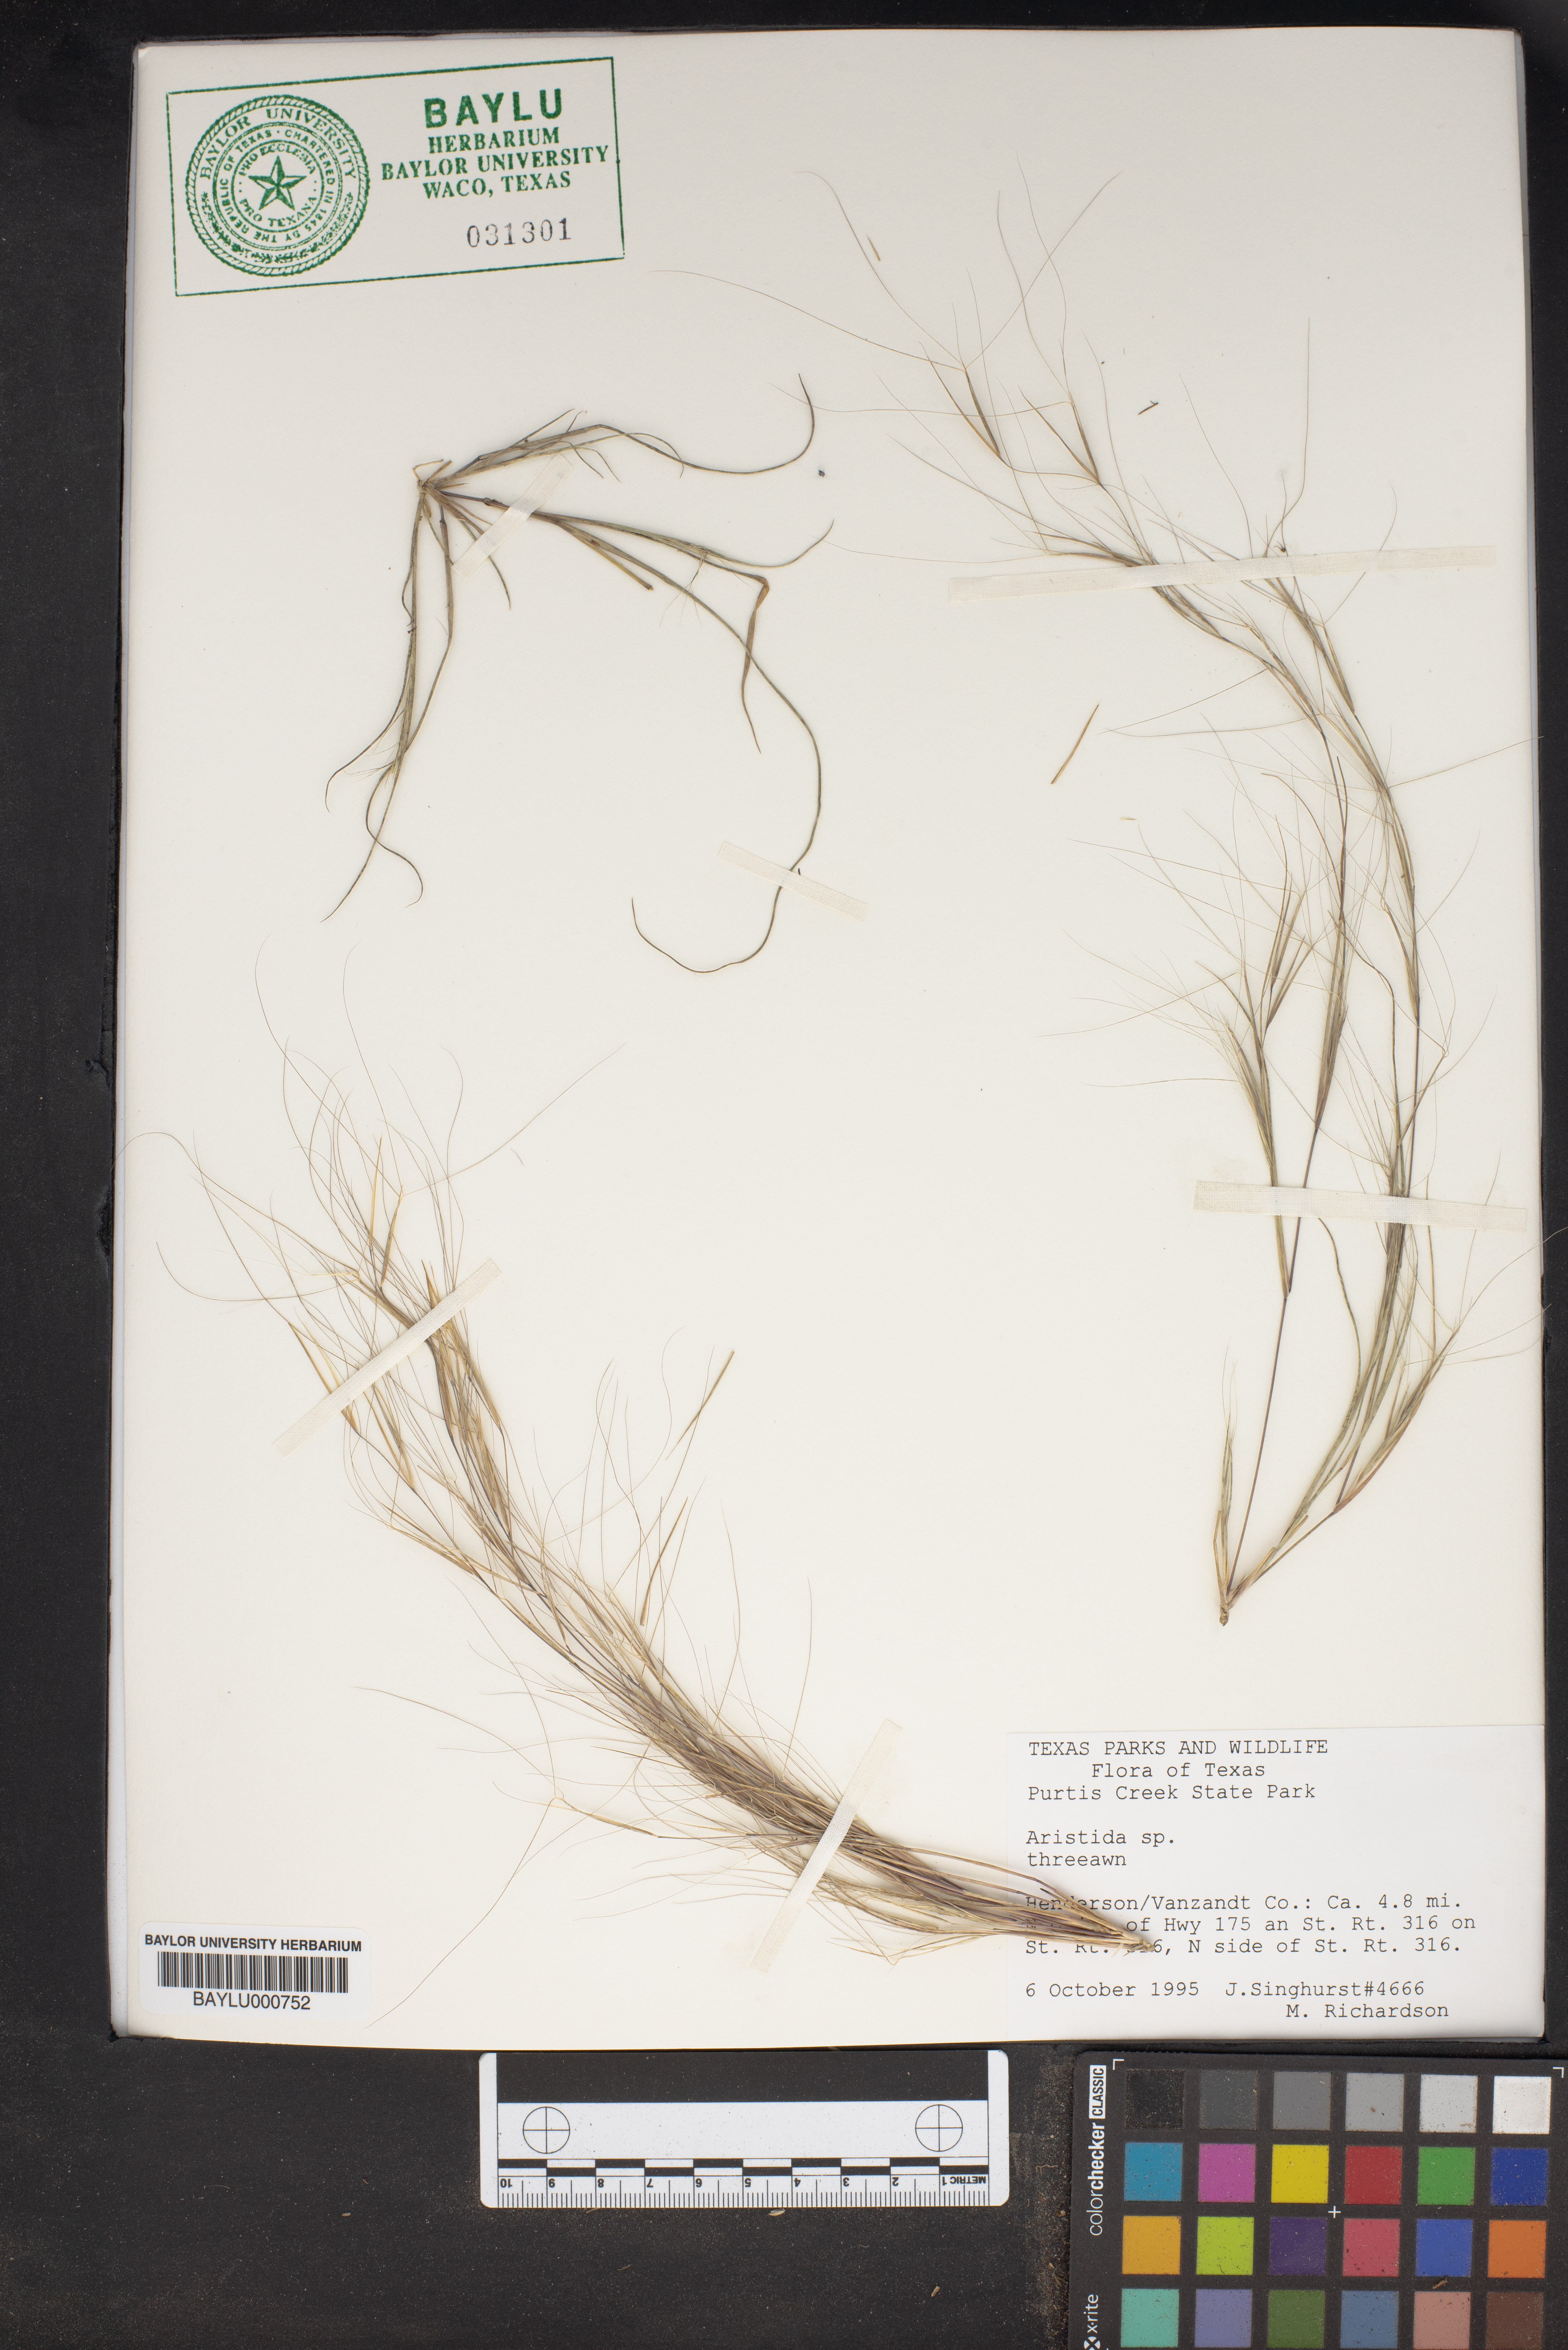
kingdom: Plantae
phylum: Tracheophyta
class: Liliopsida
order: Poales
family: Poaceae
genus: Aristida
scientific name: Aristida
